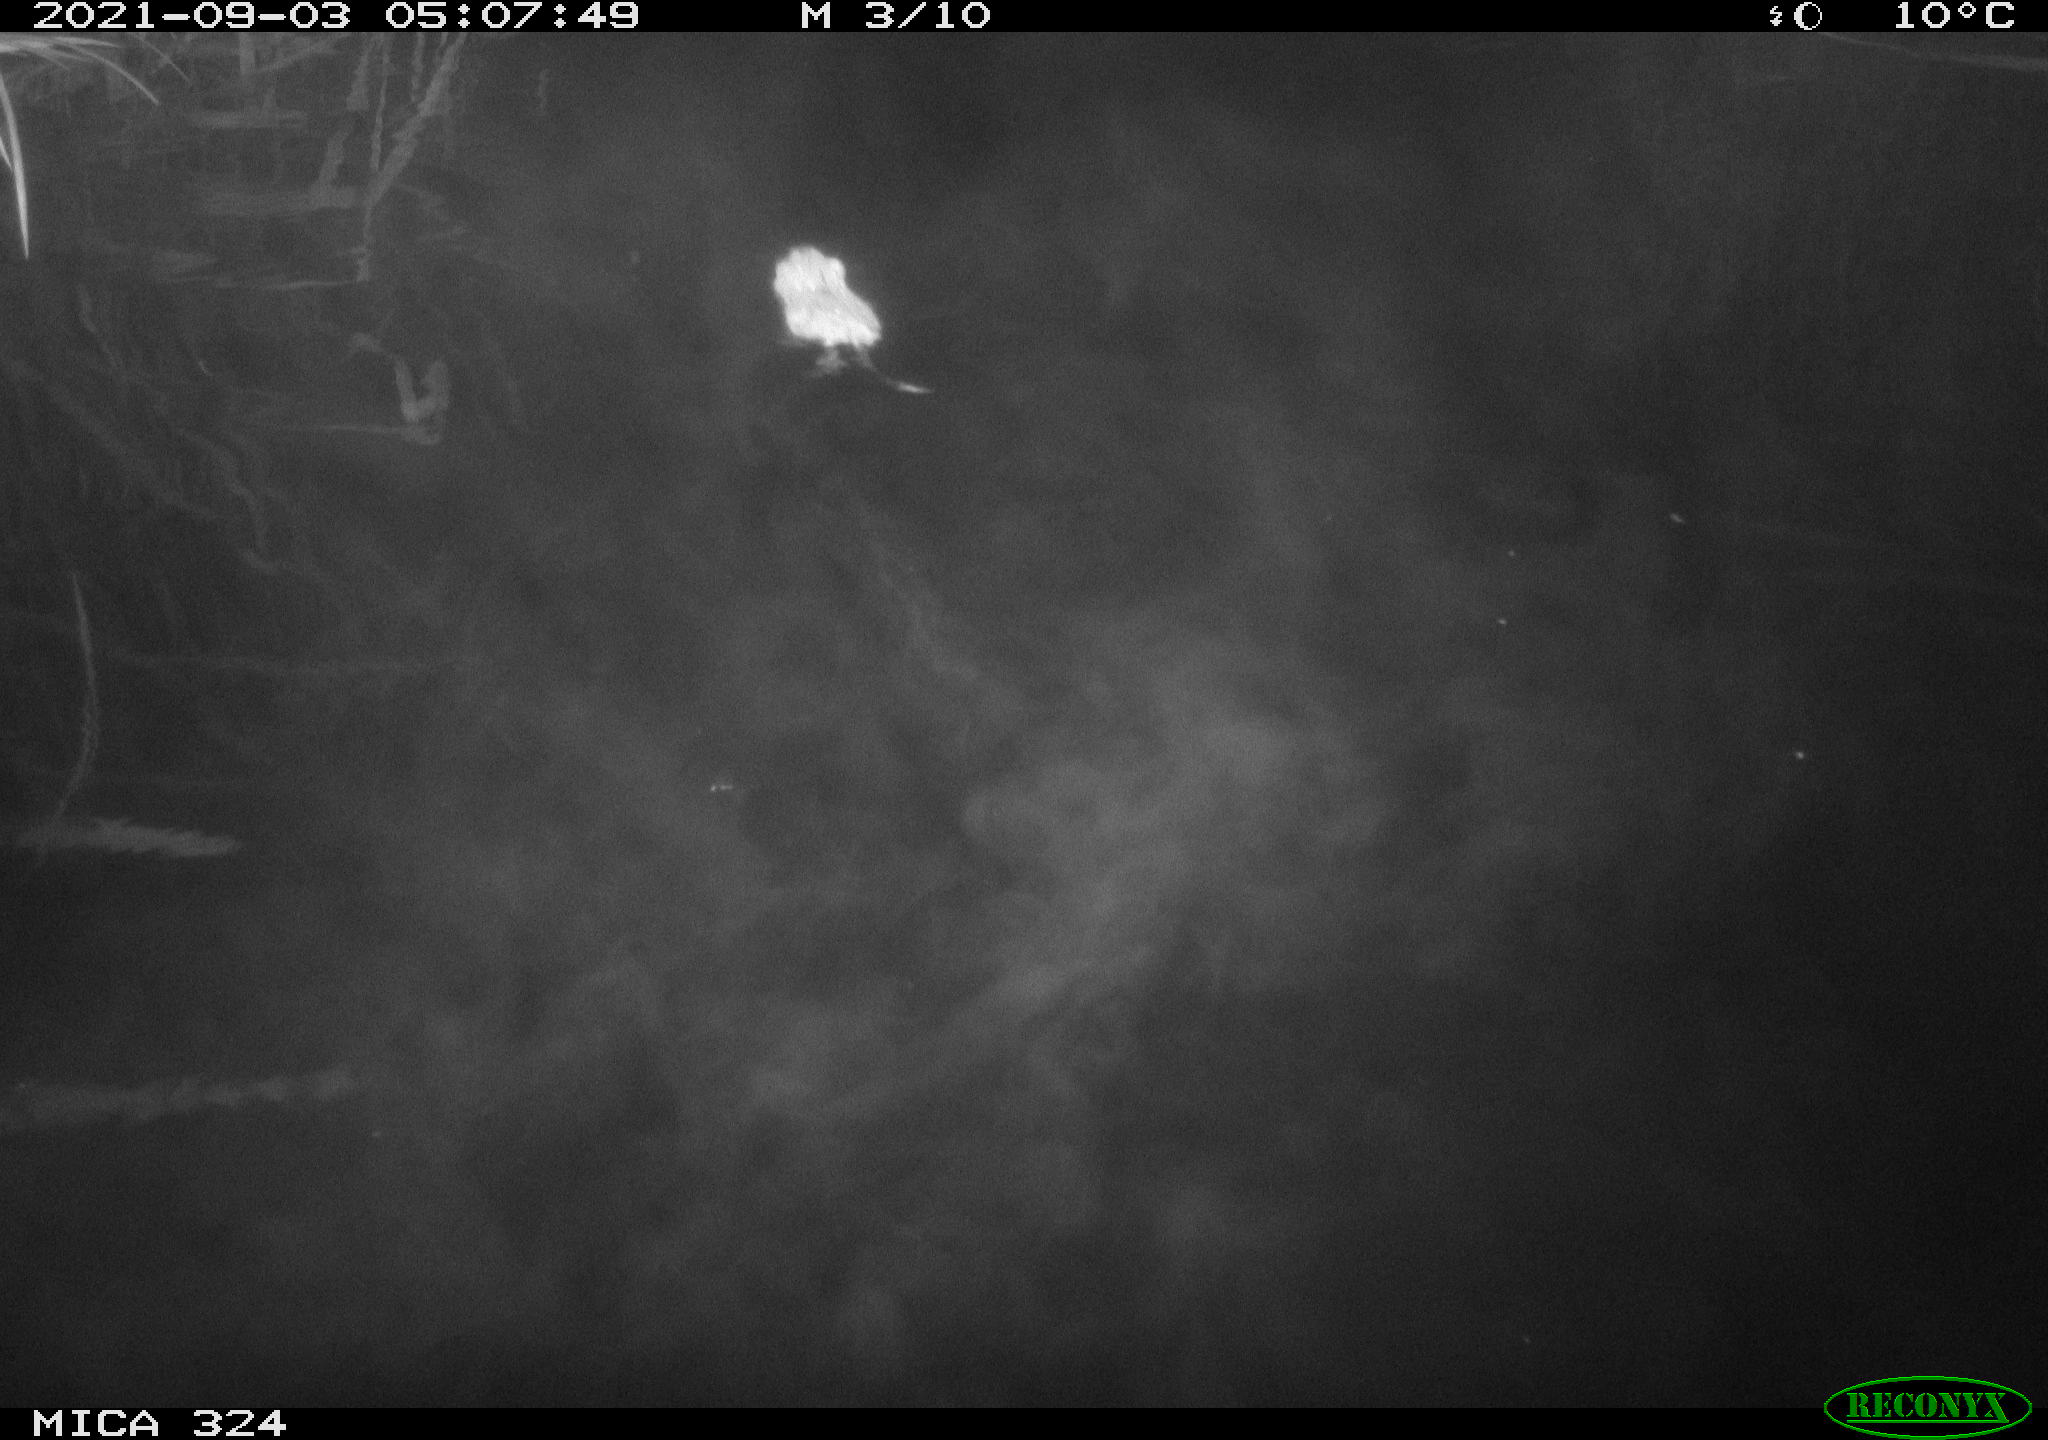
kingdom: Animalia
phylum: Chordata
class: Mammalia
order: Rodentia
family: Cricetidae
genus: Ondatra
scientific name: Ondatra zibethicus
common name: Muskrat
